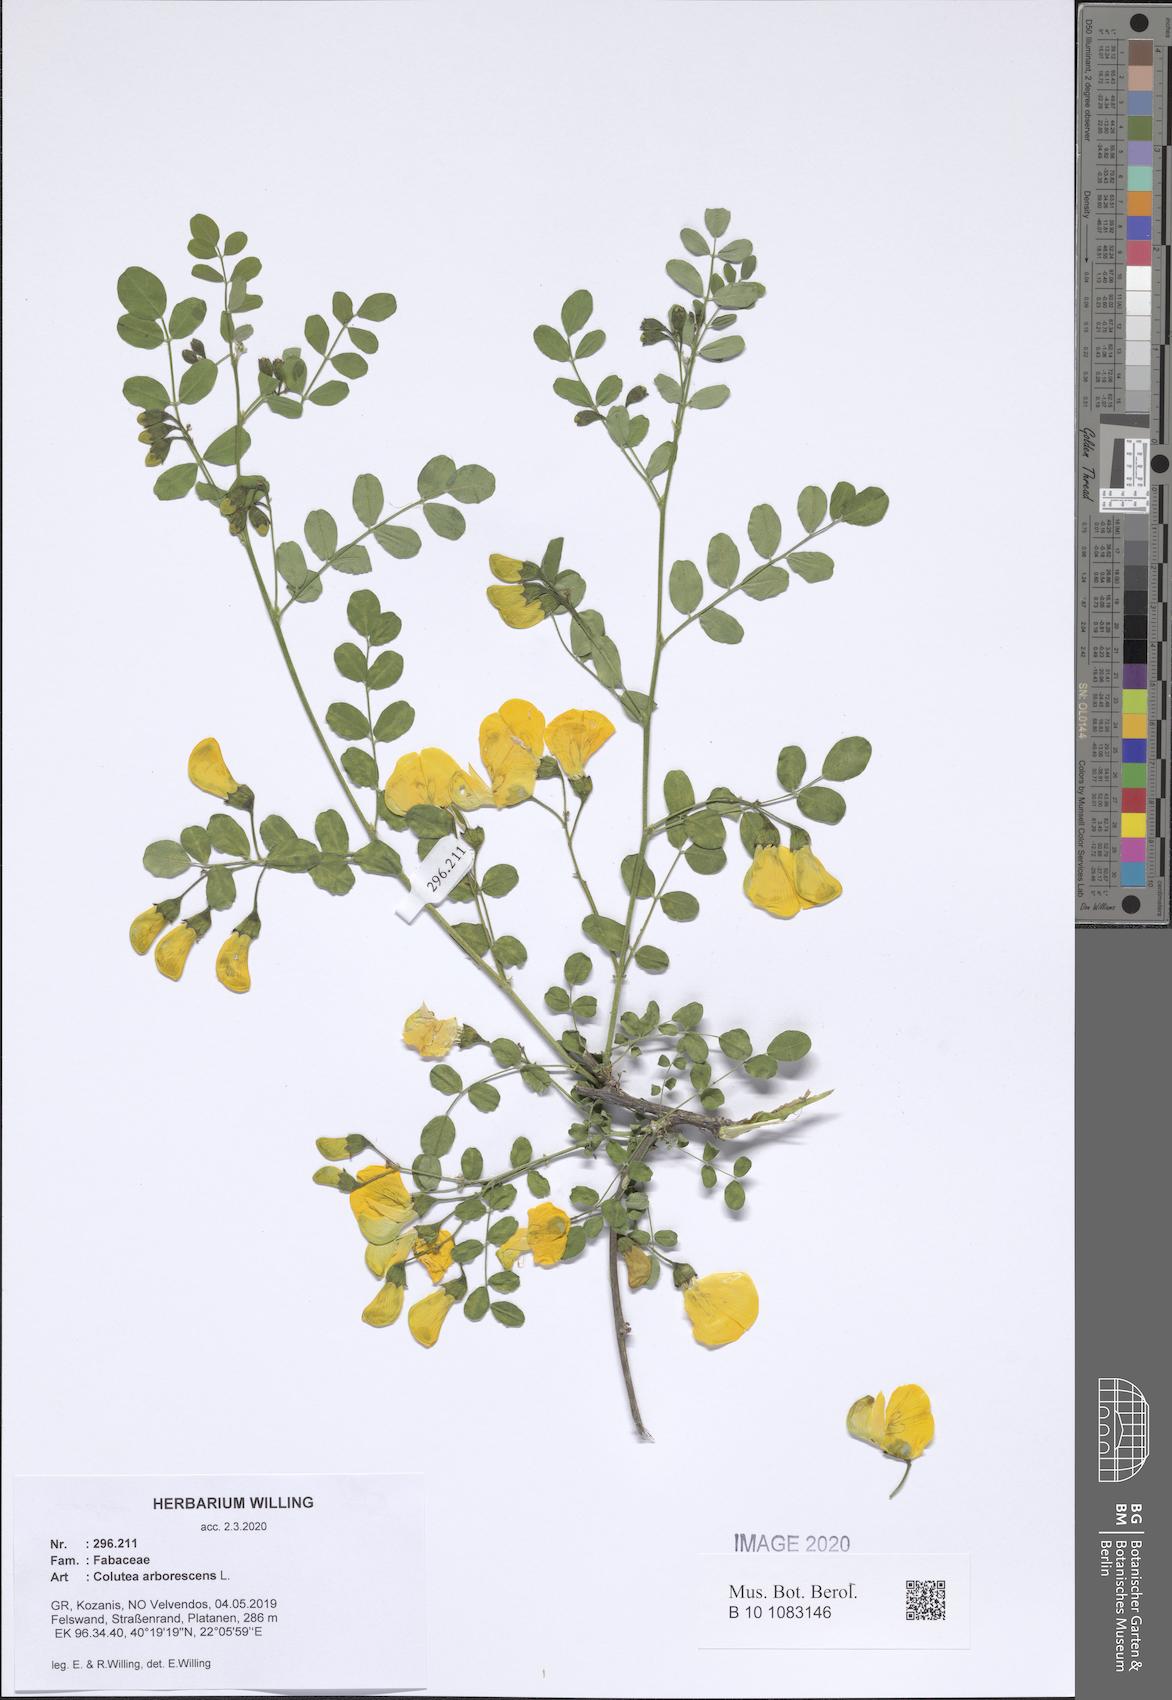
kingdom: Plantae
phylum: Tracheophyta
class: Magnoliopsida
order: Fabales
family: Fabaceae
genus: Colutea
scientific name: Colutea arborescens
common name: Bladder-senna
